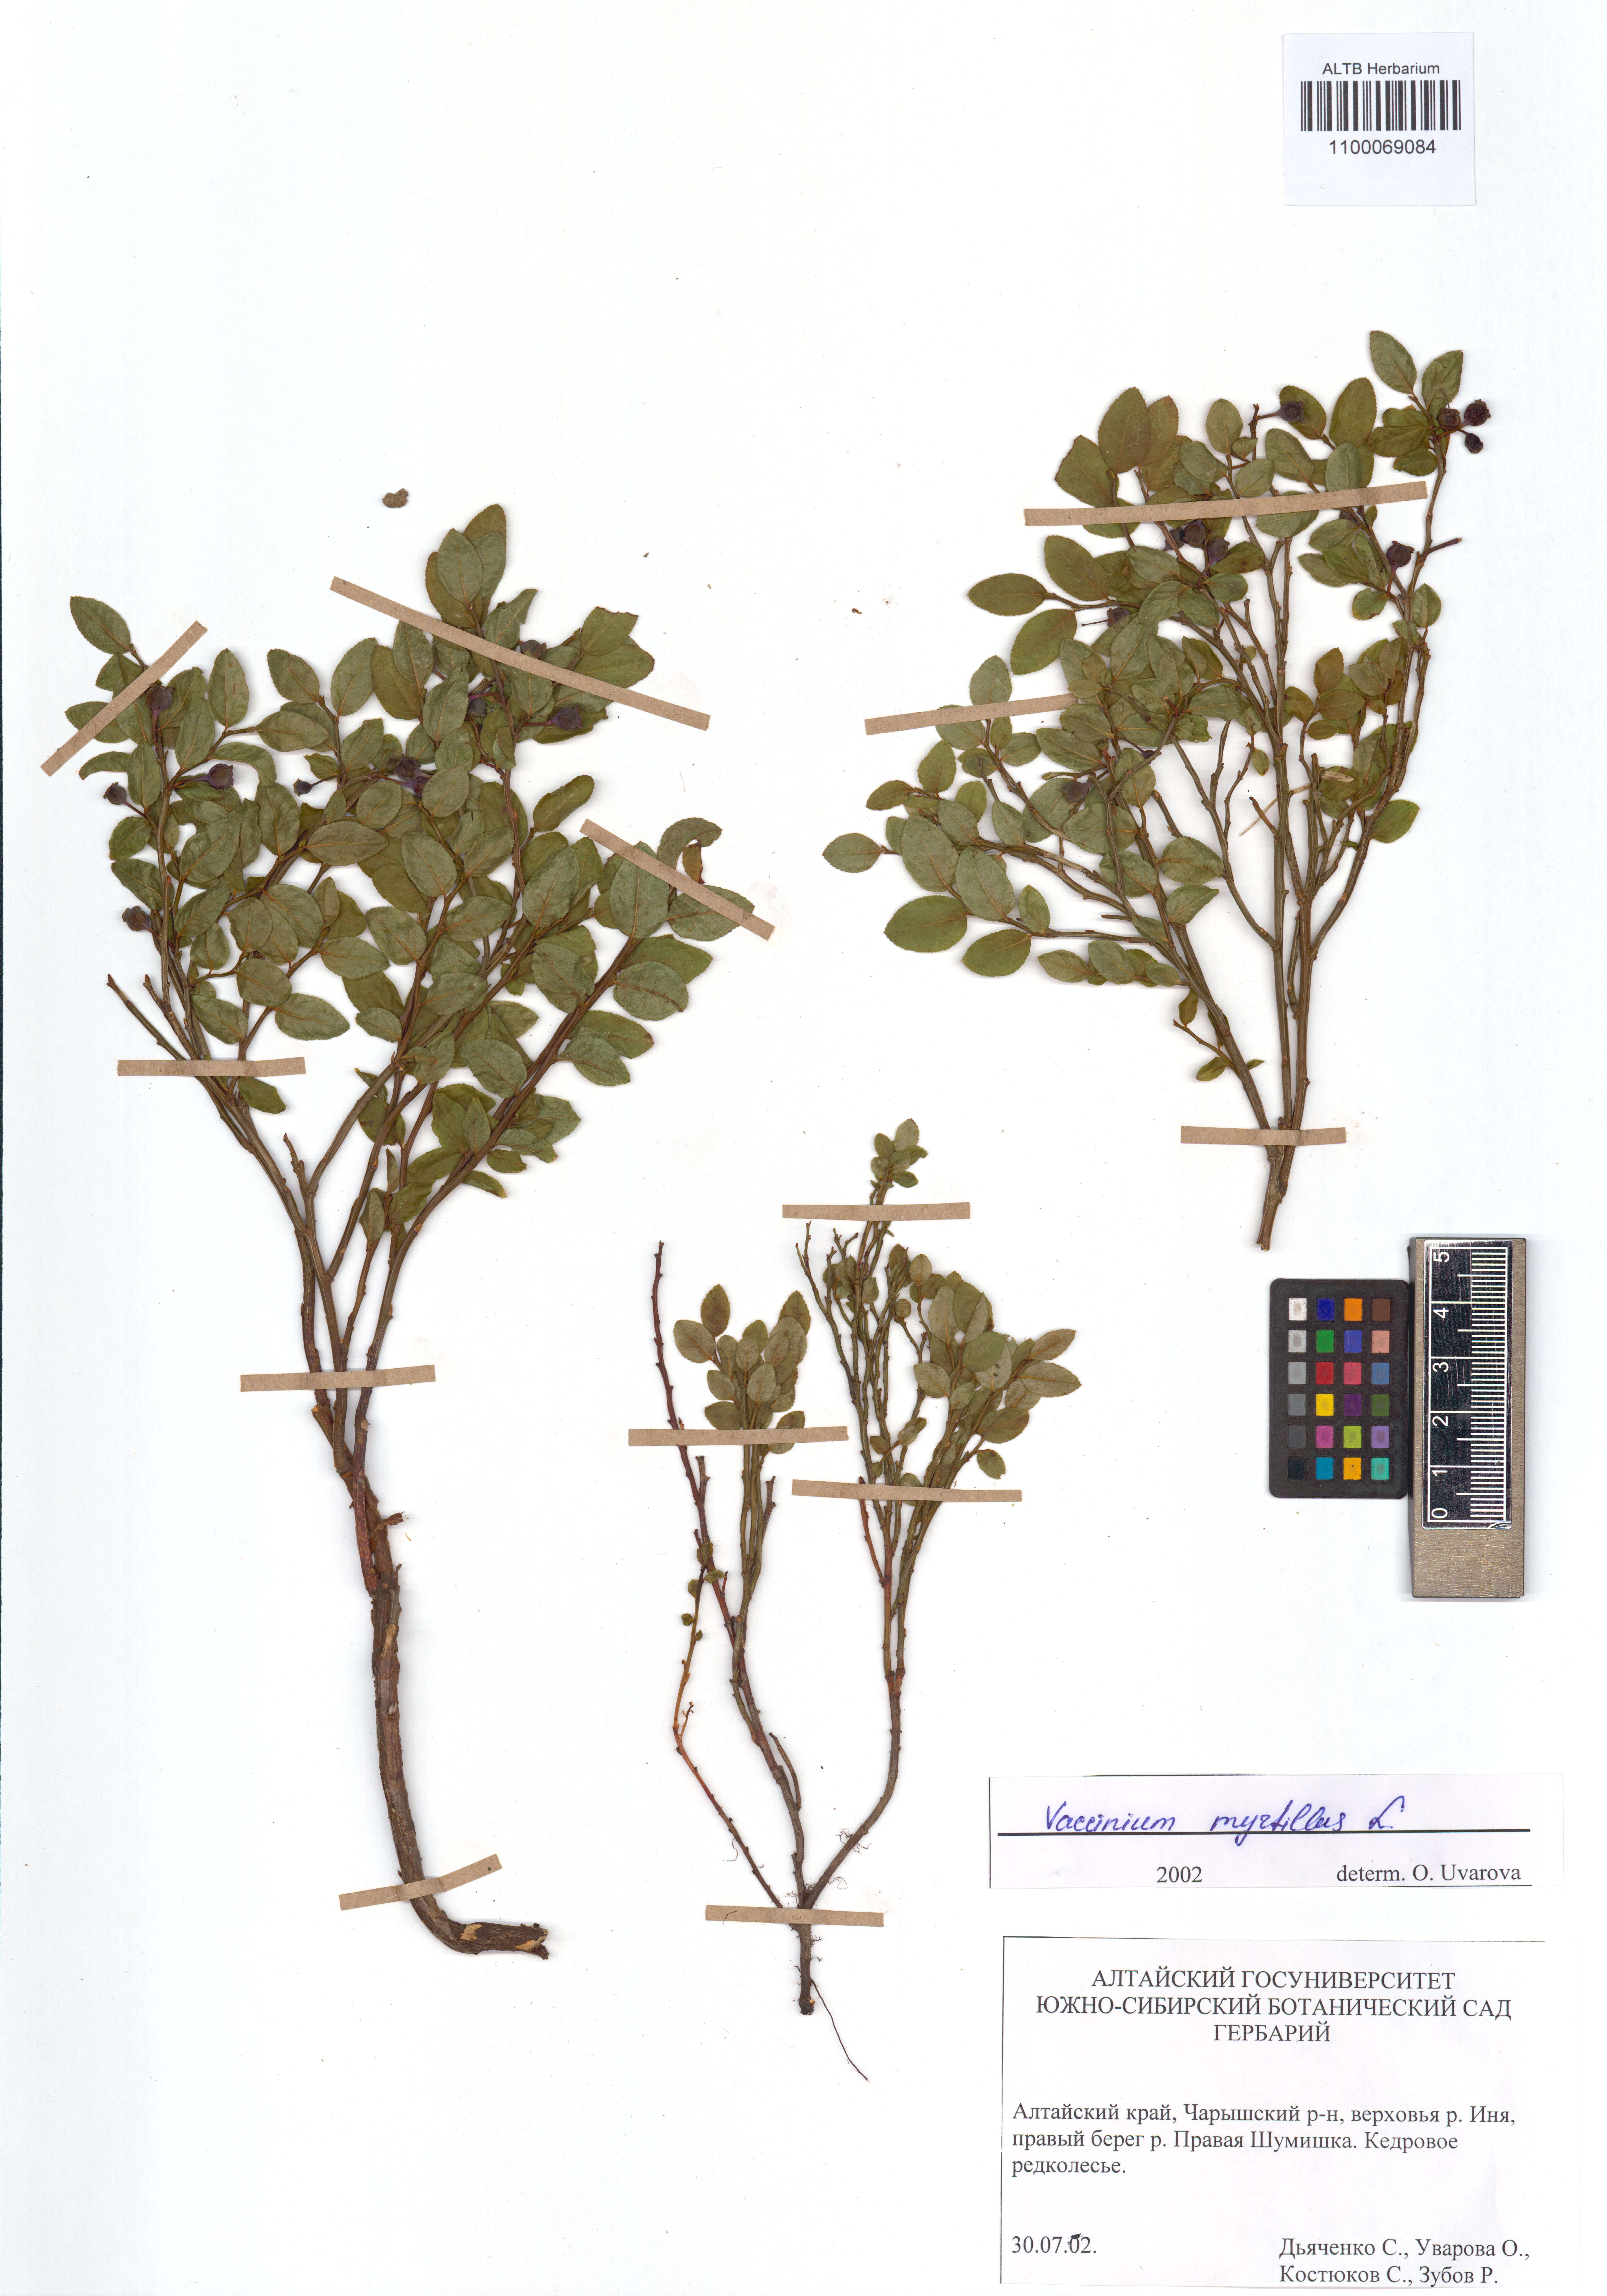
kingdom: Plantae
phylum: Tracheophyta
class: Magnoliopsida
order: Ericales
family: Ericaceae
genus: Vaccinium
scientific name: Vaccinium myrtillus
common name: Bilberry
